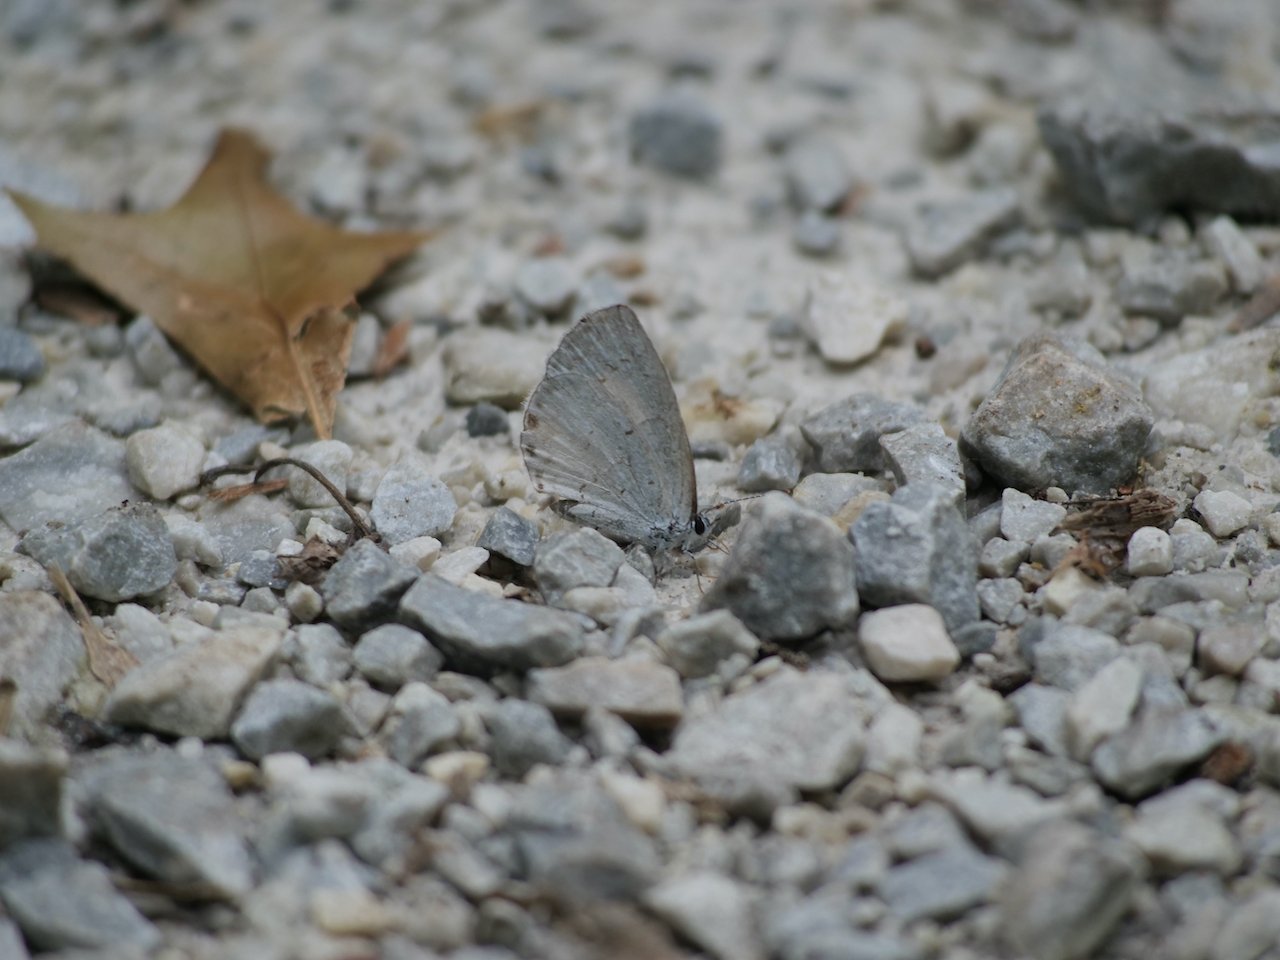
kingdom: Animalia
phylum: Arthropoda
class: Insecta
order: Lepidoptera
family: Lycaenidae
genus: Cyaniris
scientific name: Cyaniris neglecta
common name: Summer Azure
